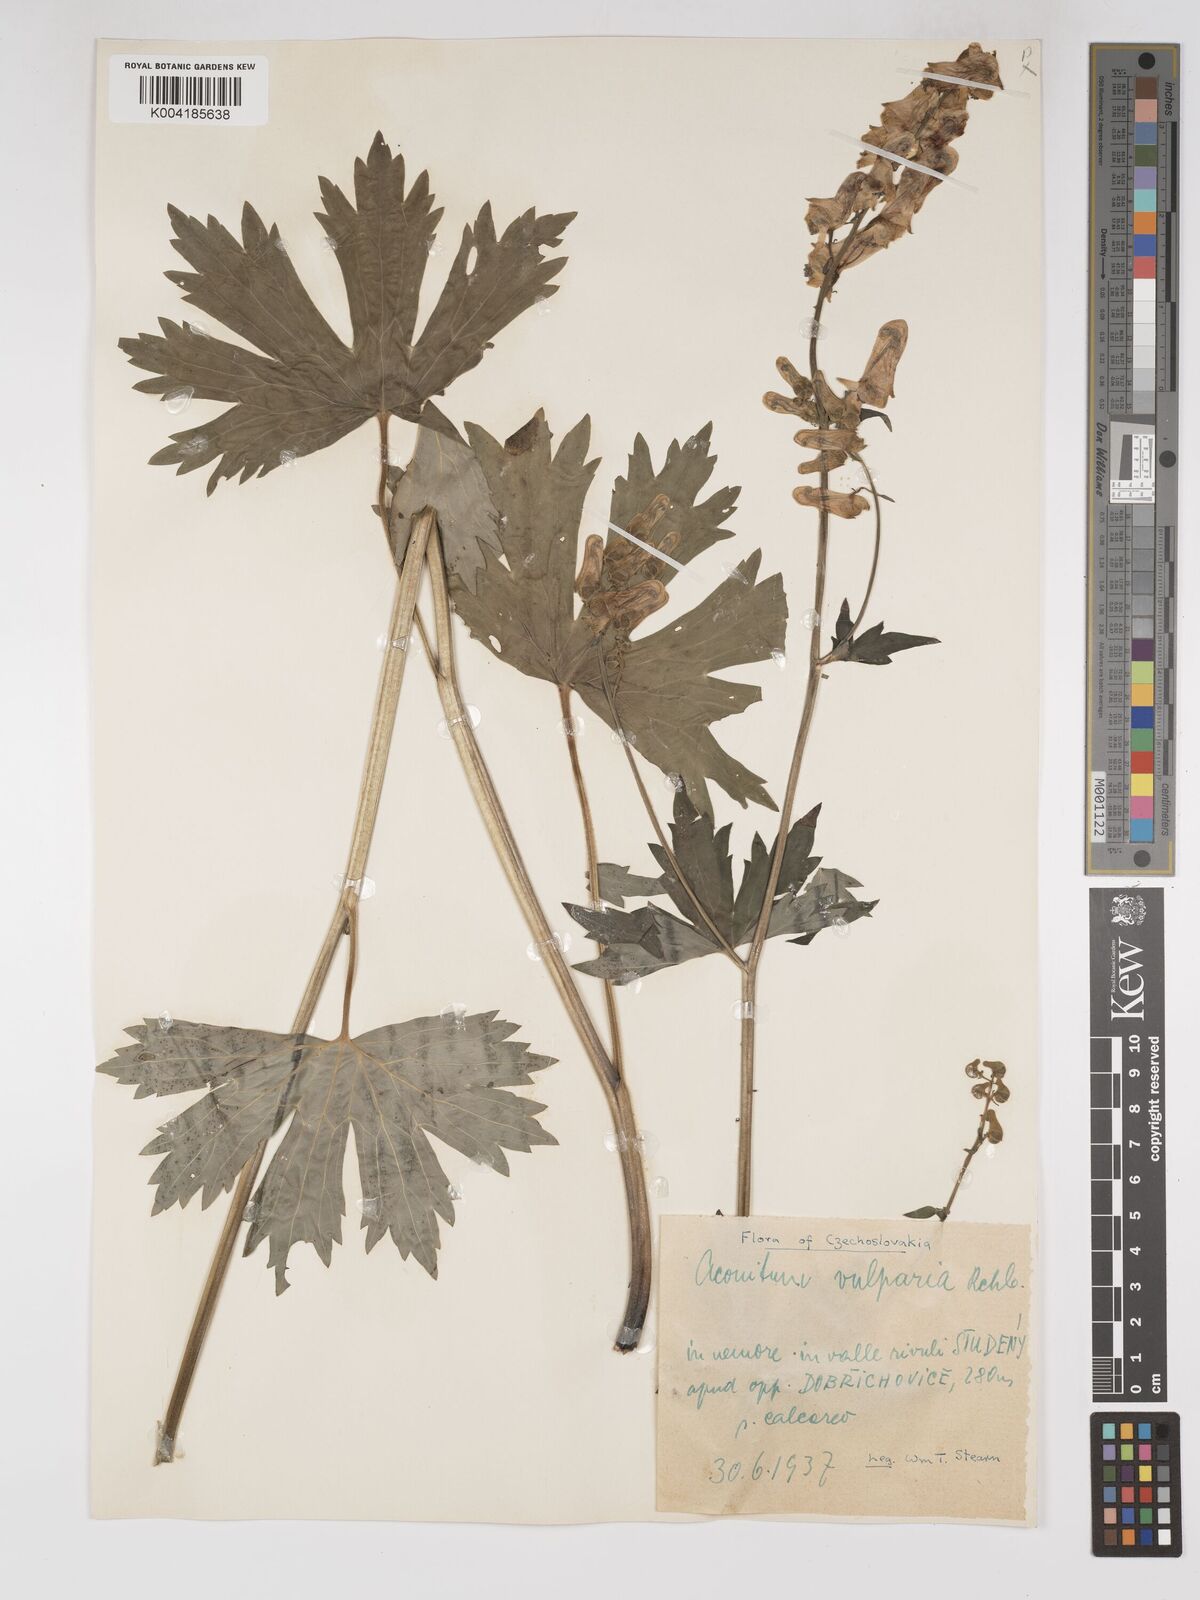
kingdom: Plantae
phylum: Tracheophyta
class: Magnoliopsida
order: Ranunculales
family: Ranunculaceae
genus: Aconitum
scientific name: Aconitum lycoctonum
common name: Wolf's-bane
